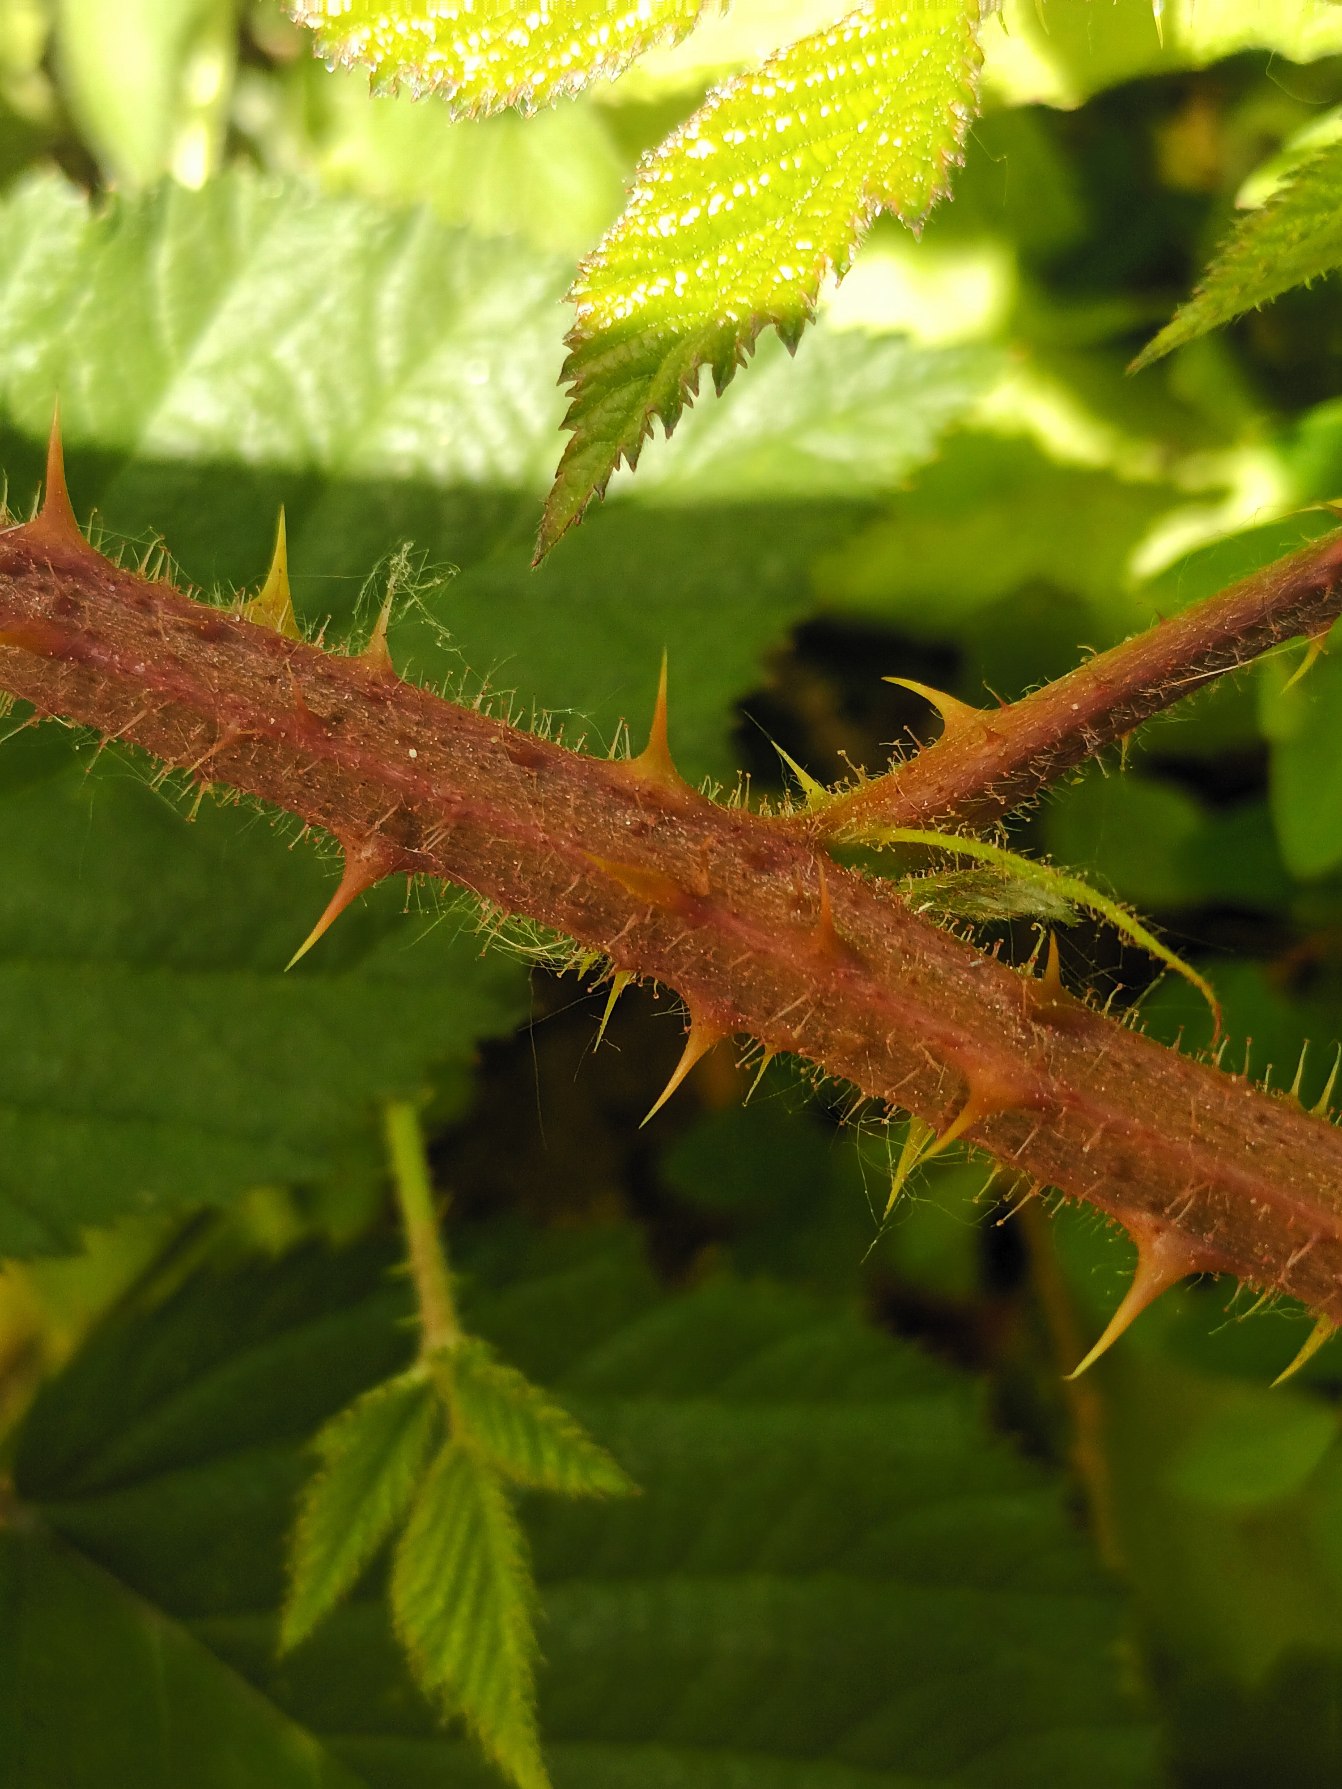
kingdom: Plantae
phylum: Tracheophyta
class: Magnoliopsida
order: Rosales
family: Rosaceae
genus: Rubus
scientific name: Rubus radula
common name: Rasperu brombær
